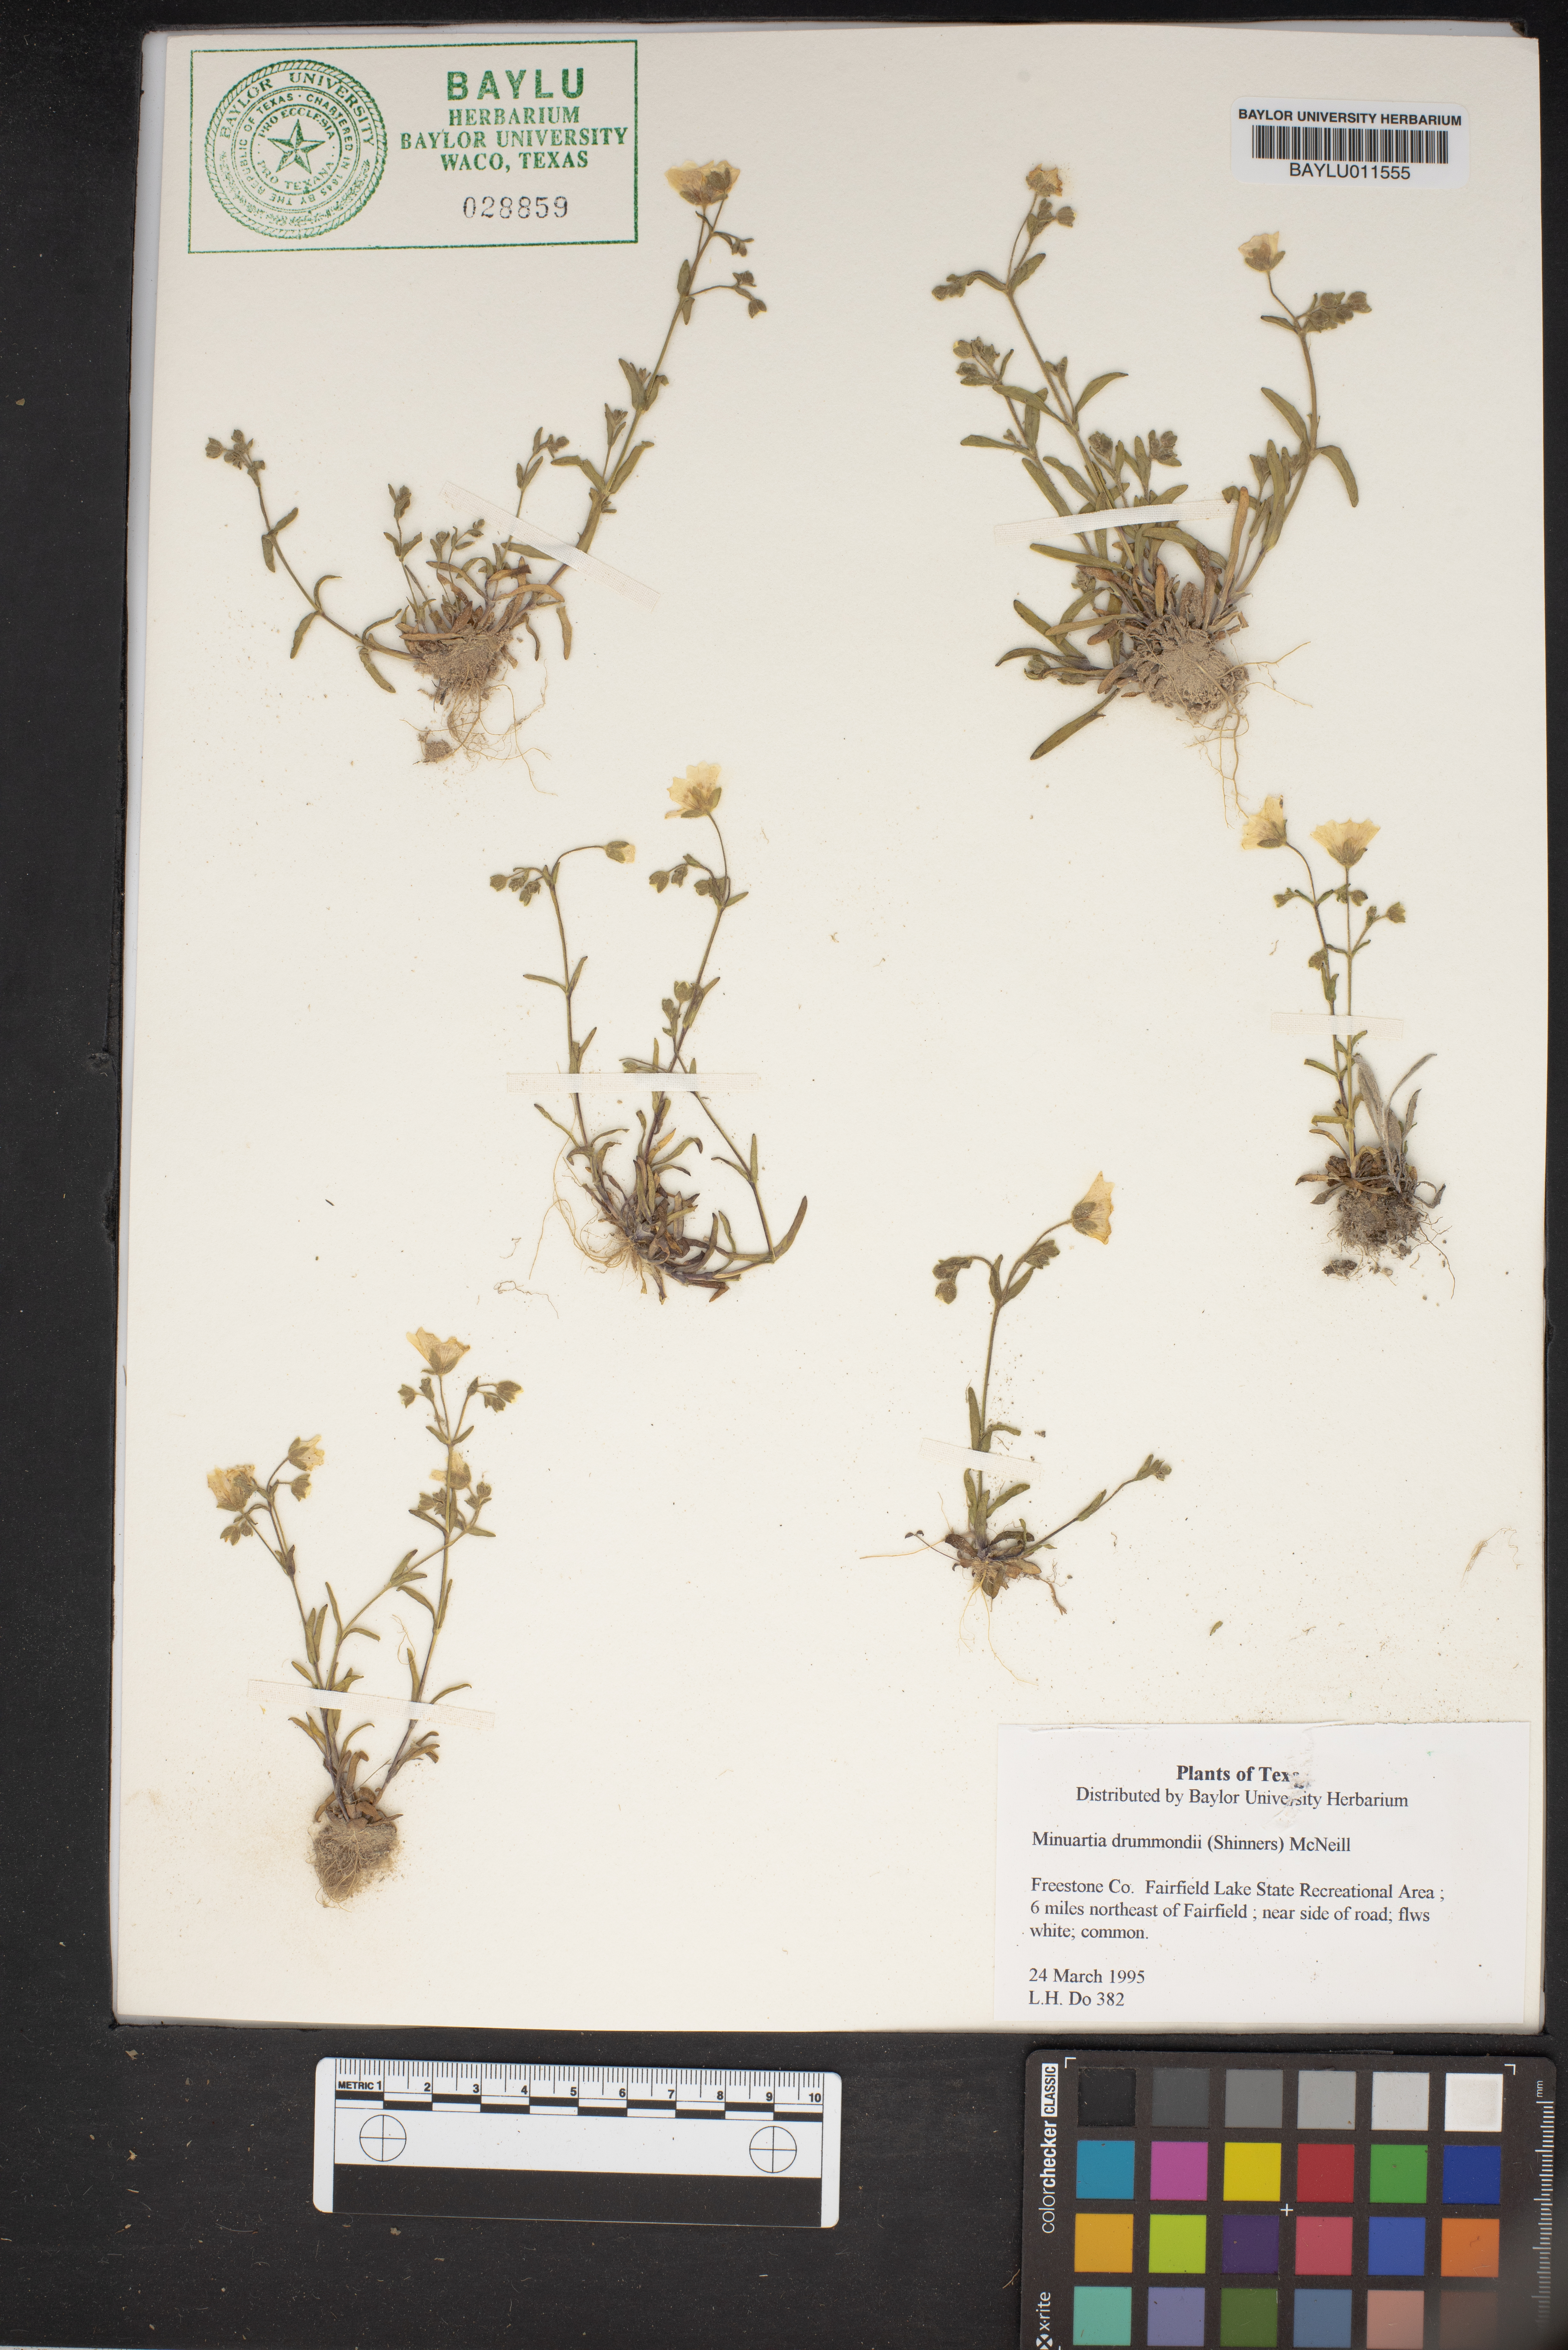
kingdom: Plantae
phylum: Tracheophyta
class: Magnoliopsida
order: Caryophyllales
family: Caryophyllaceae
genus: Geocarpon
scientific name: Geocarpon nuttallii
